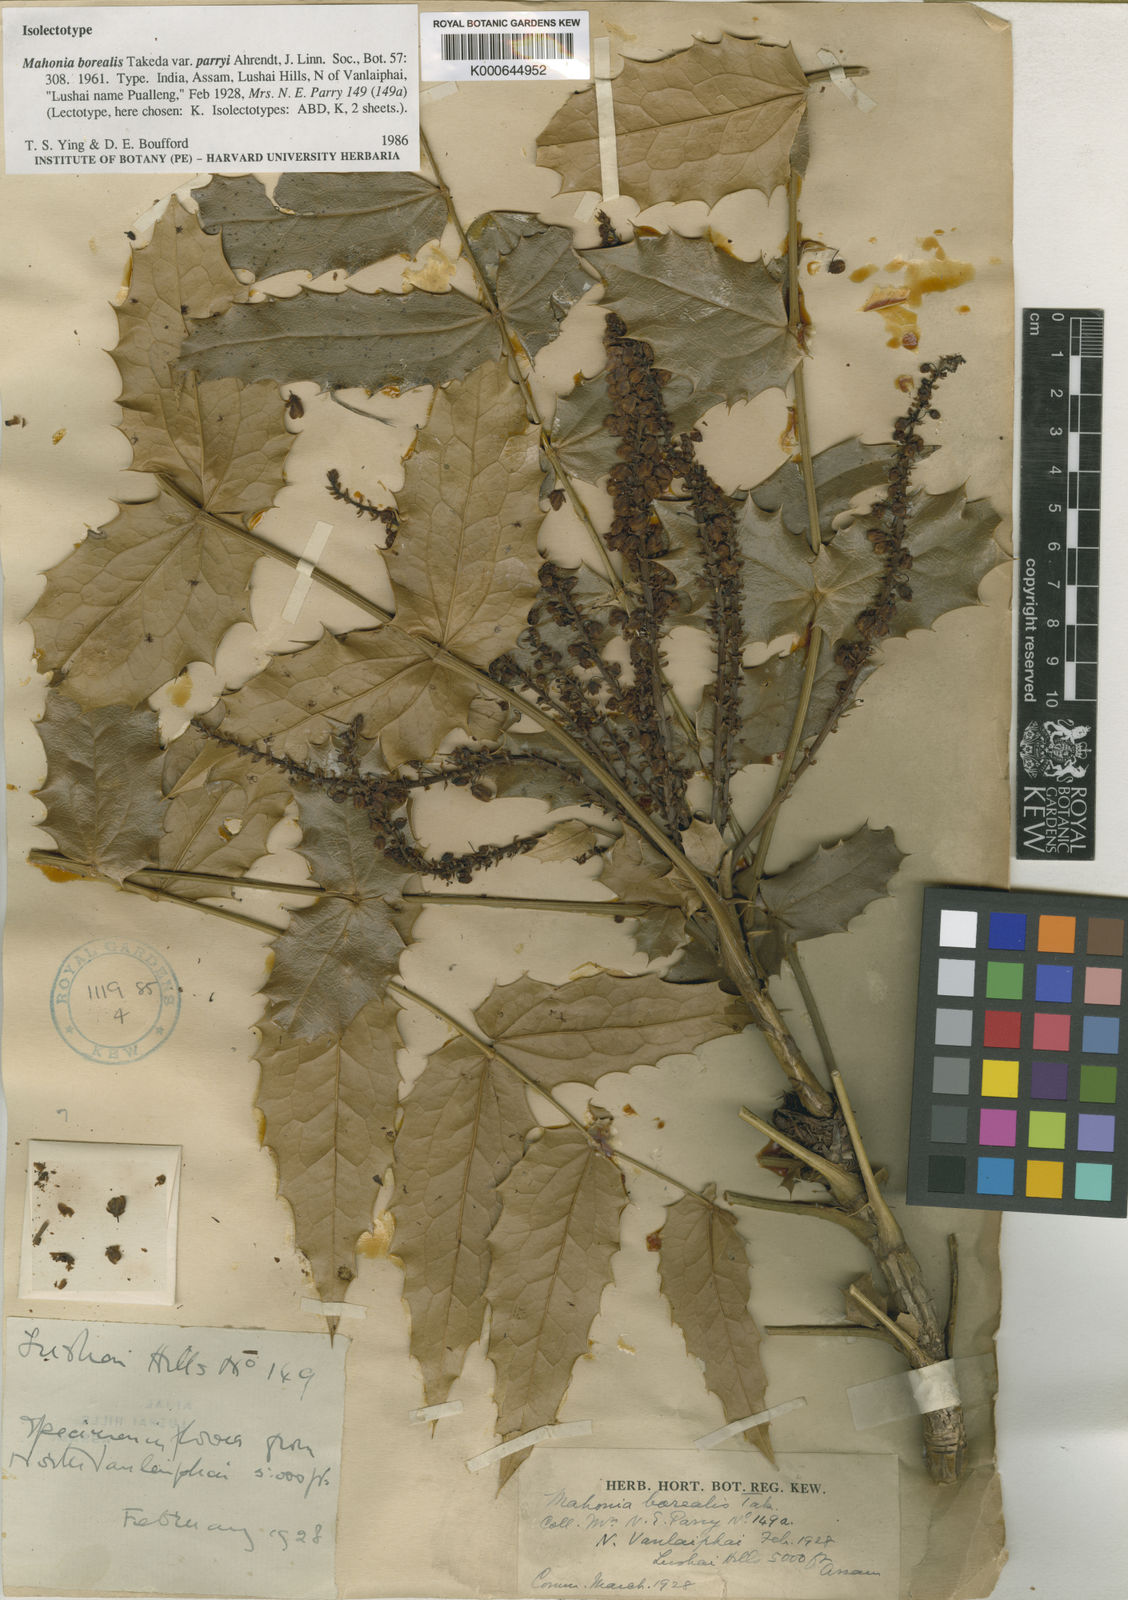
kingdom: Plantae
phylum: Tracheophyta
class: Magnoliopsida
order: Ranunculales
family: Berberidaceae
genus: Mahonia
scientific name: Mahonia napaulensis
